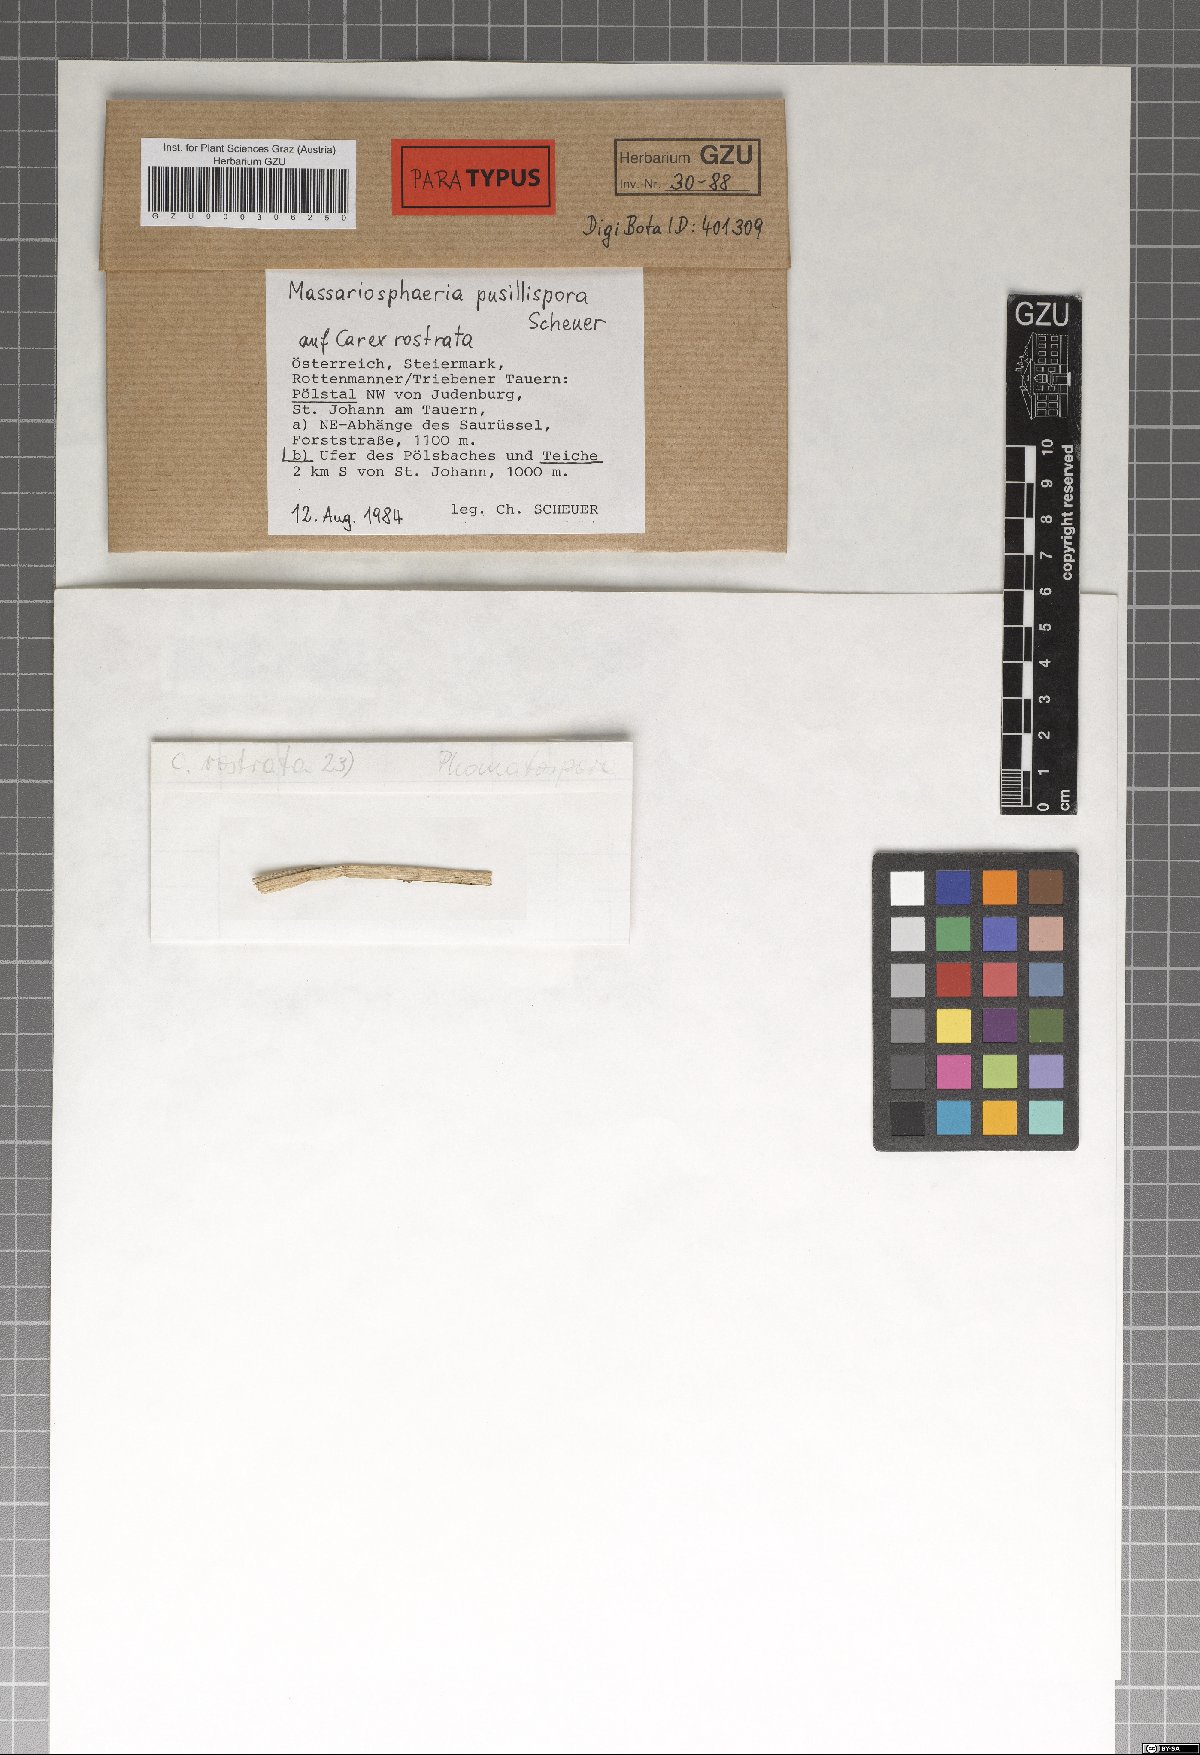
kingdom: Fungi
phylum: Ascomycota
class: Dothideomycetes
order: Pleosporales
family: Massarinaceae
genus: Massarina
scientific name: Massarina pusillispora
